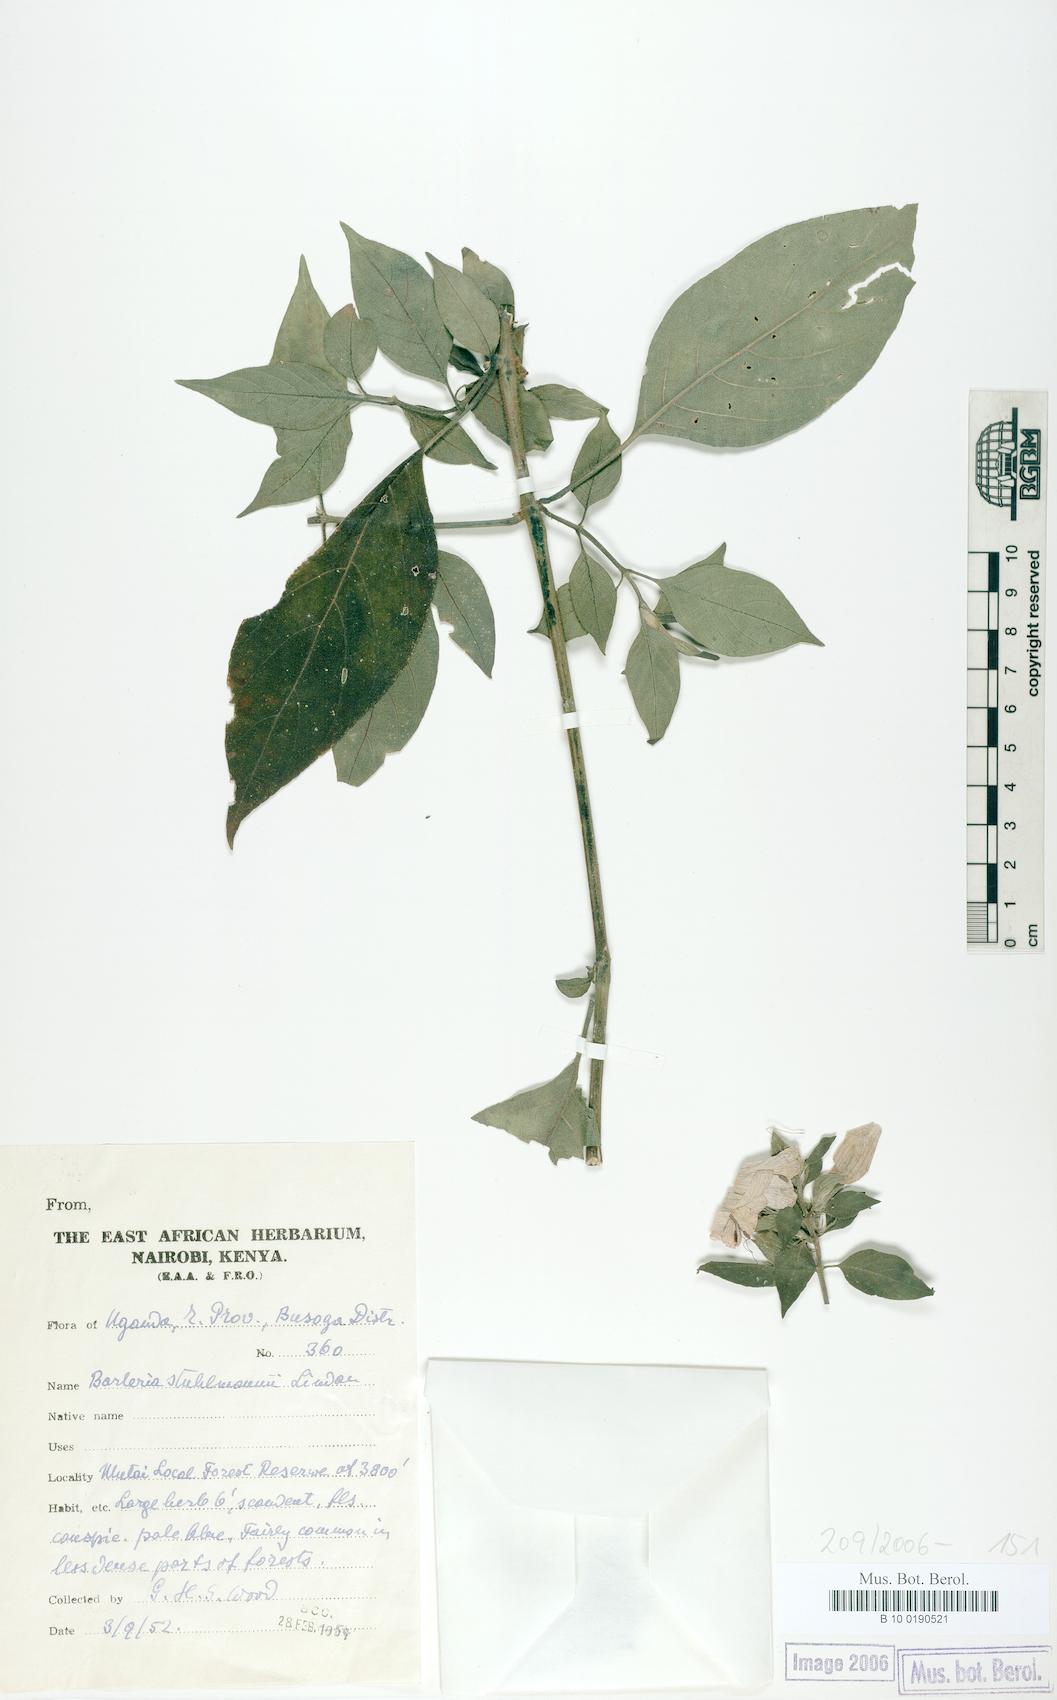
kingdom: Plantae
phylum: Tracheophyta
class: Magnoliopsida
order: Lamiales
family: Acanthaceae
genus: Barleria
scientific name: Barleria ventricosa
